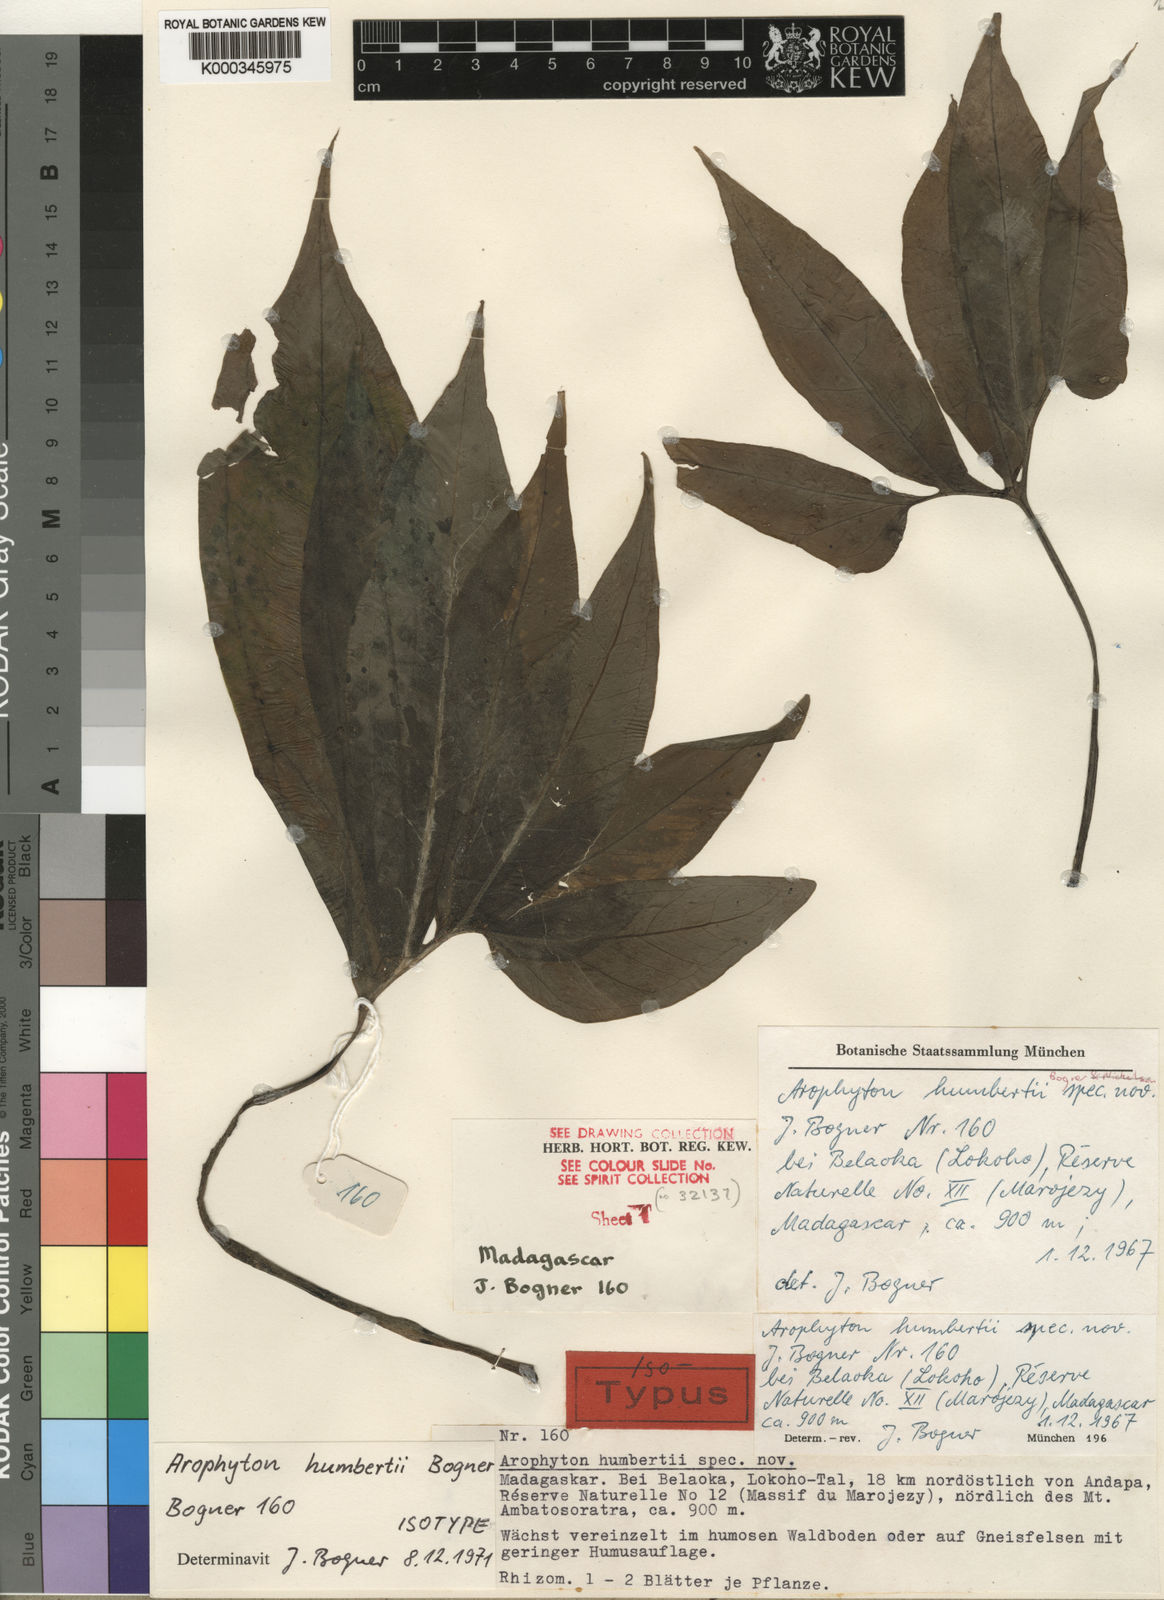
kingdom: Plantae
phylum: Tracheophyta
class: Liliopsida
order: Alismatales
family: Araceae
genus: Arophyton
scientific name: Arophyton humbertii
